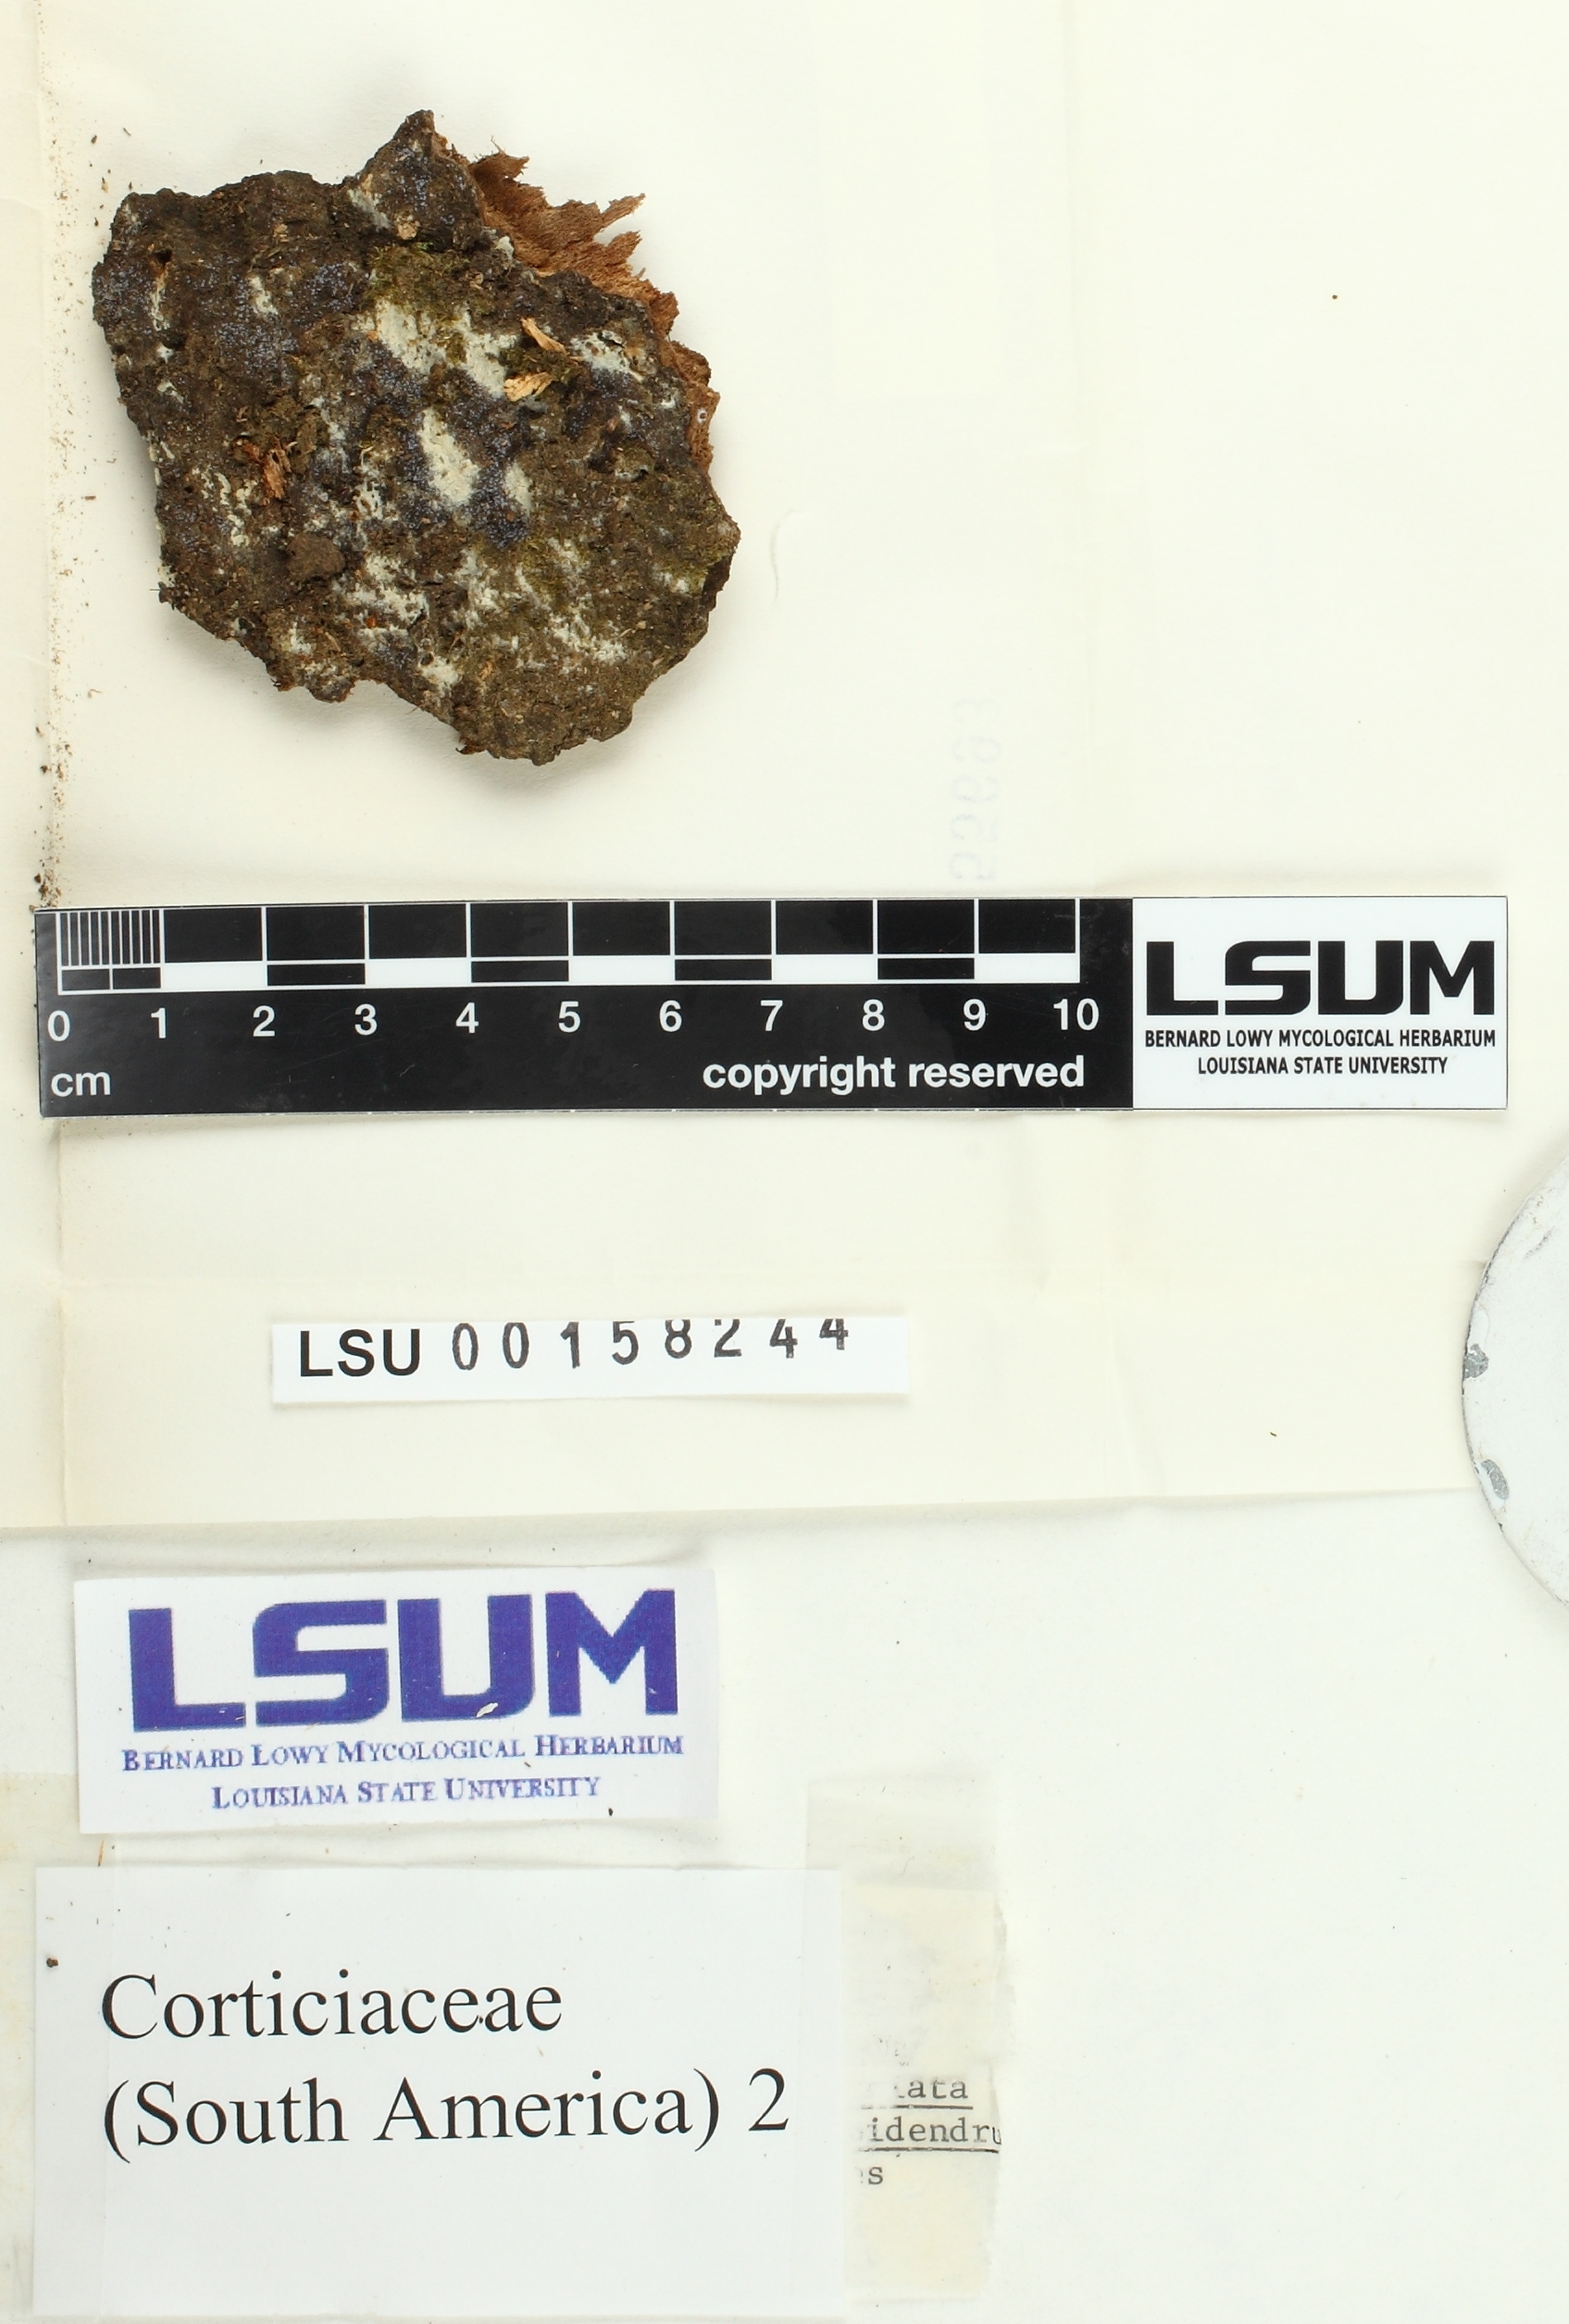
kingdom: Fungi
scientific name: Fungi
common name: Fungi
